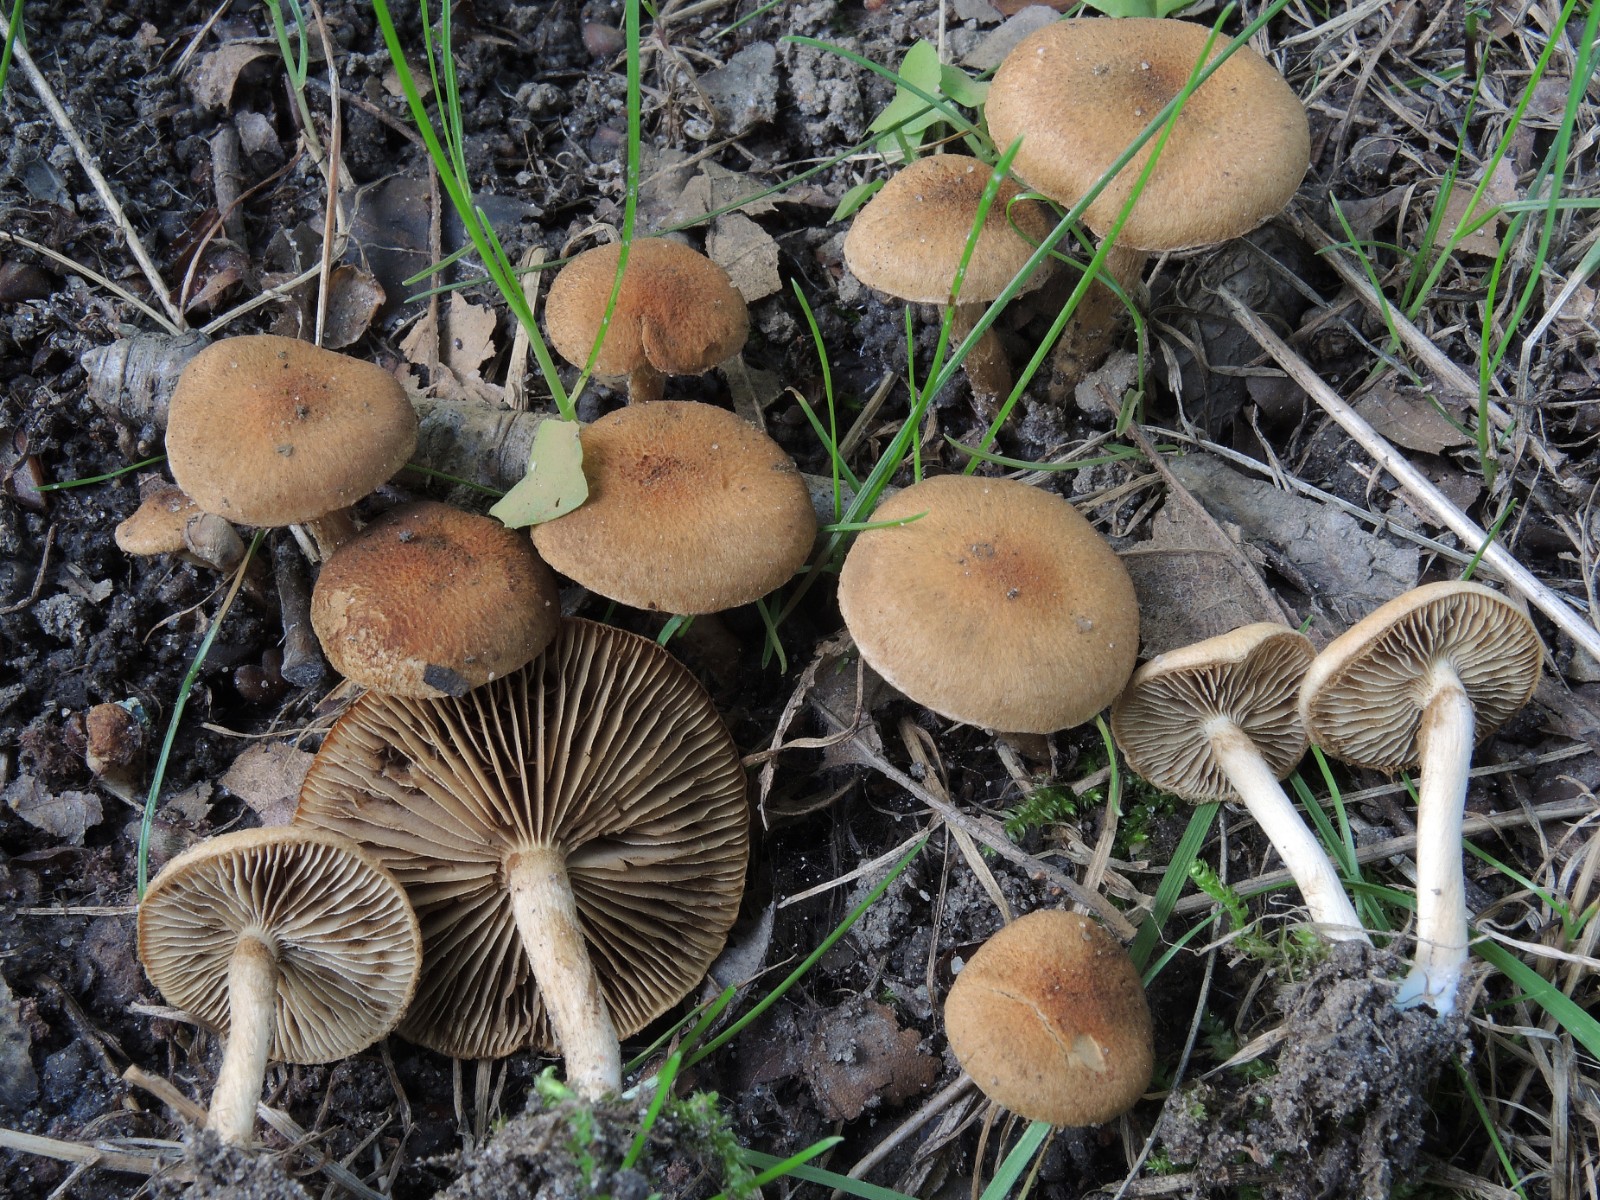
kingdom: Fungi
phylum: Basidiomycota
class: Agaricomycetes
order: Agaricales
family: Inocybaceae
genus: Inocybe
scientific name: Inocybe dulcamara
